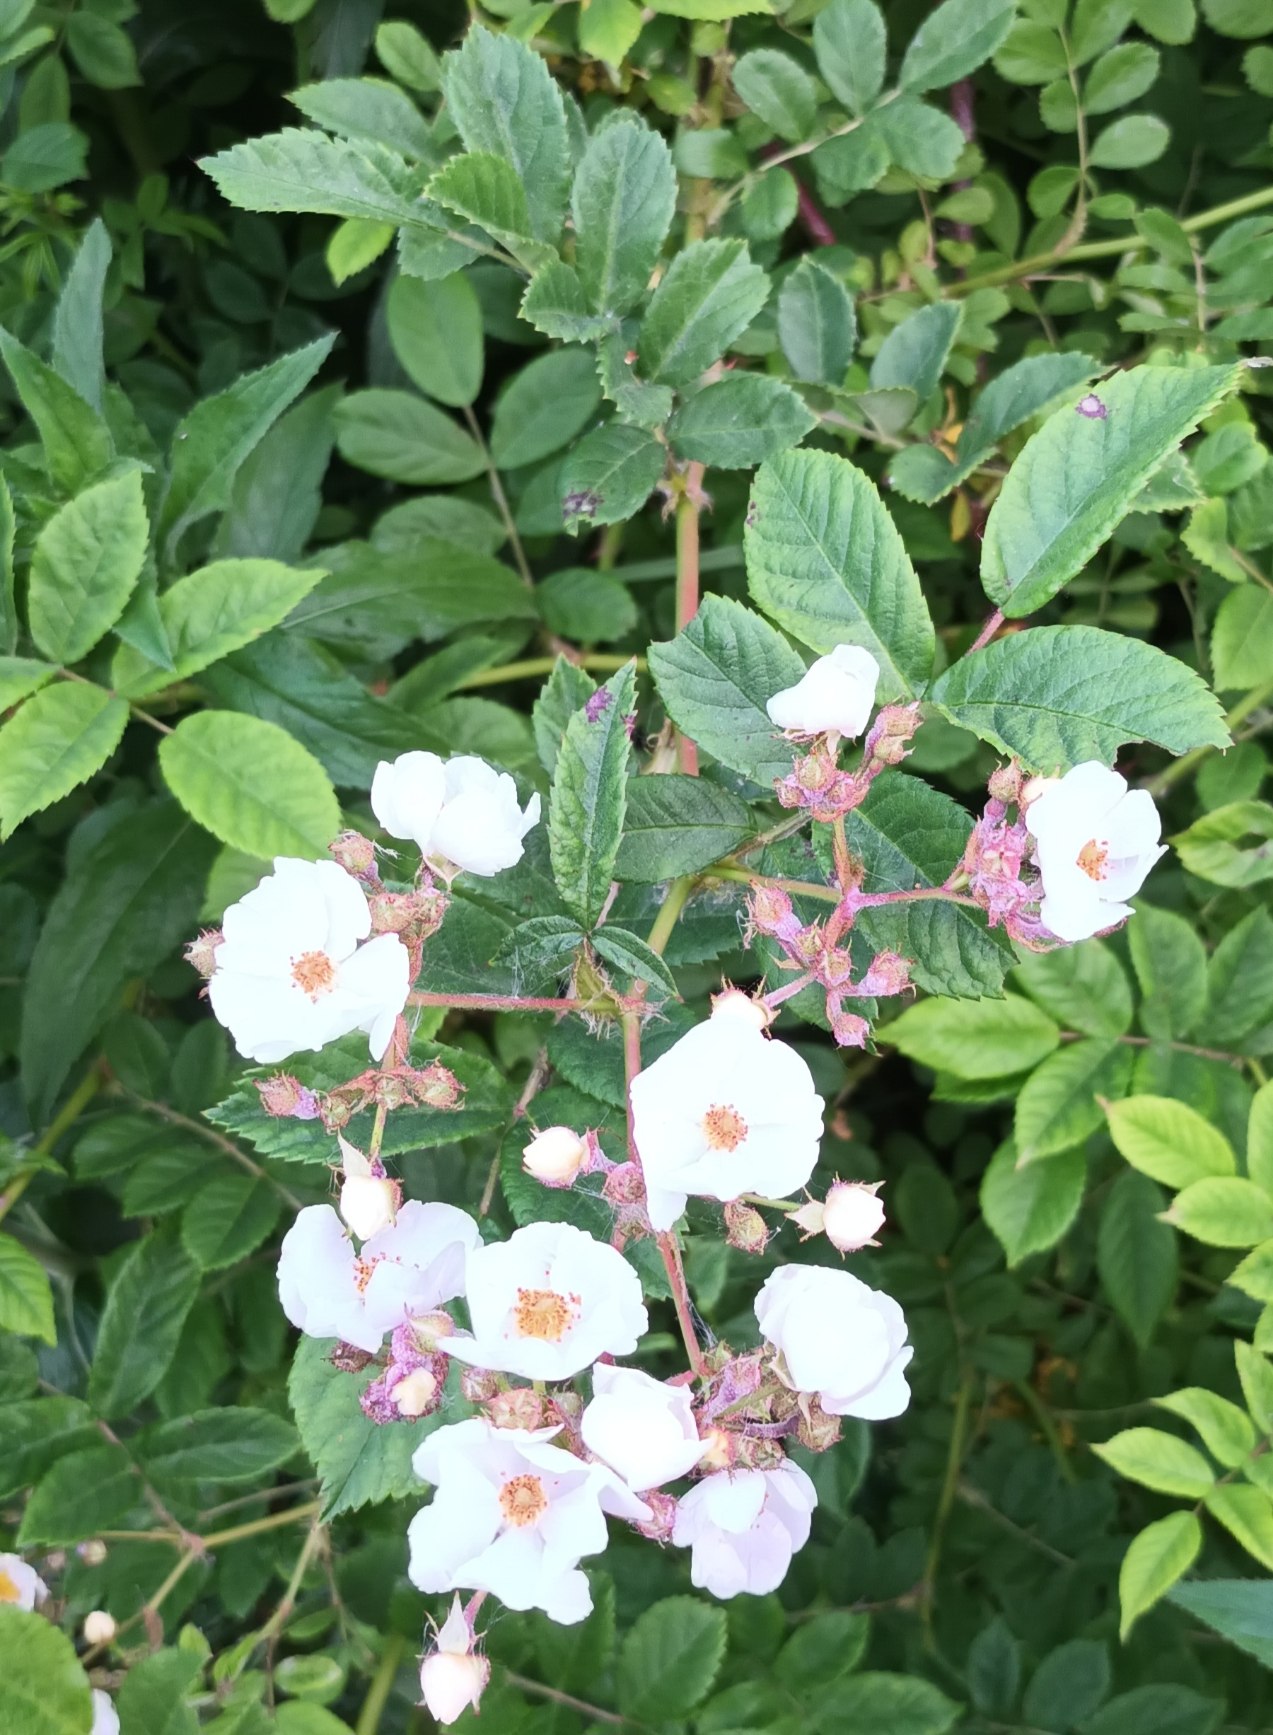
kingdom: Plantae
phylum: Tracheophyta
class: Magnoliopsida
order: Rosales
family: Rosaceae
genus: Rosa
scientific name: Rosa multiflora
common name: Mangeblomstret rose
